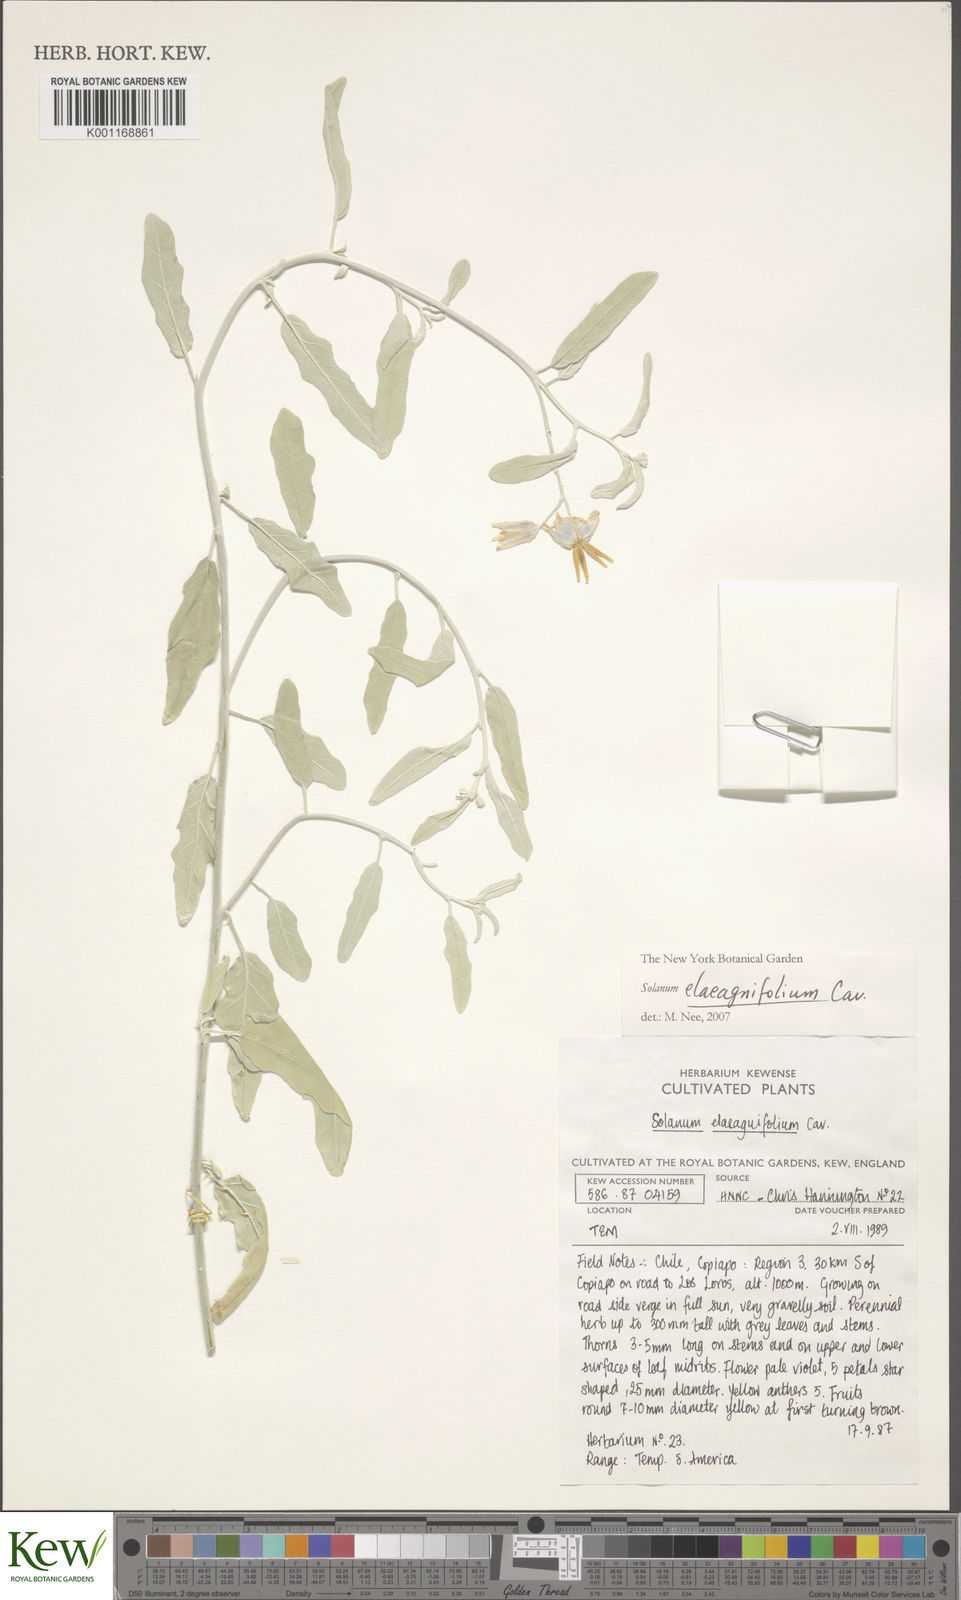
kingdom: Plantae
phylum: Tracheophyta
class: Magnoliopsida
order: Solanales
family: Solanaceae
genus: Solanum
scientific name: Solanum elaeagnifolium
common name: Silverleaf nightshade
